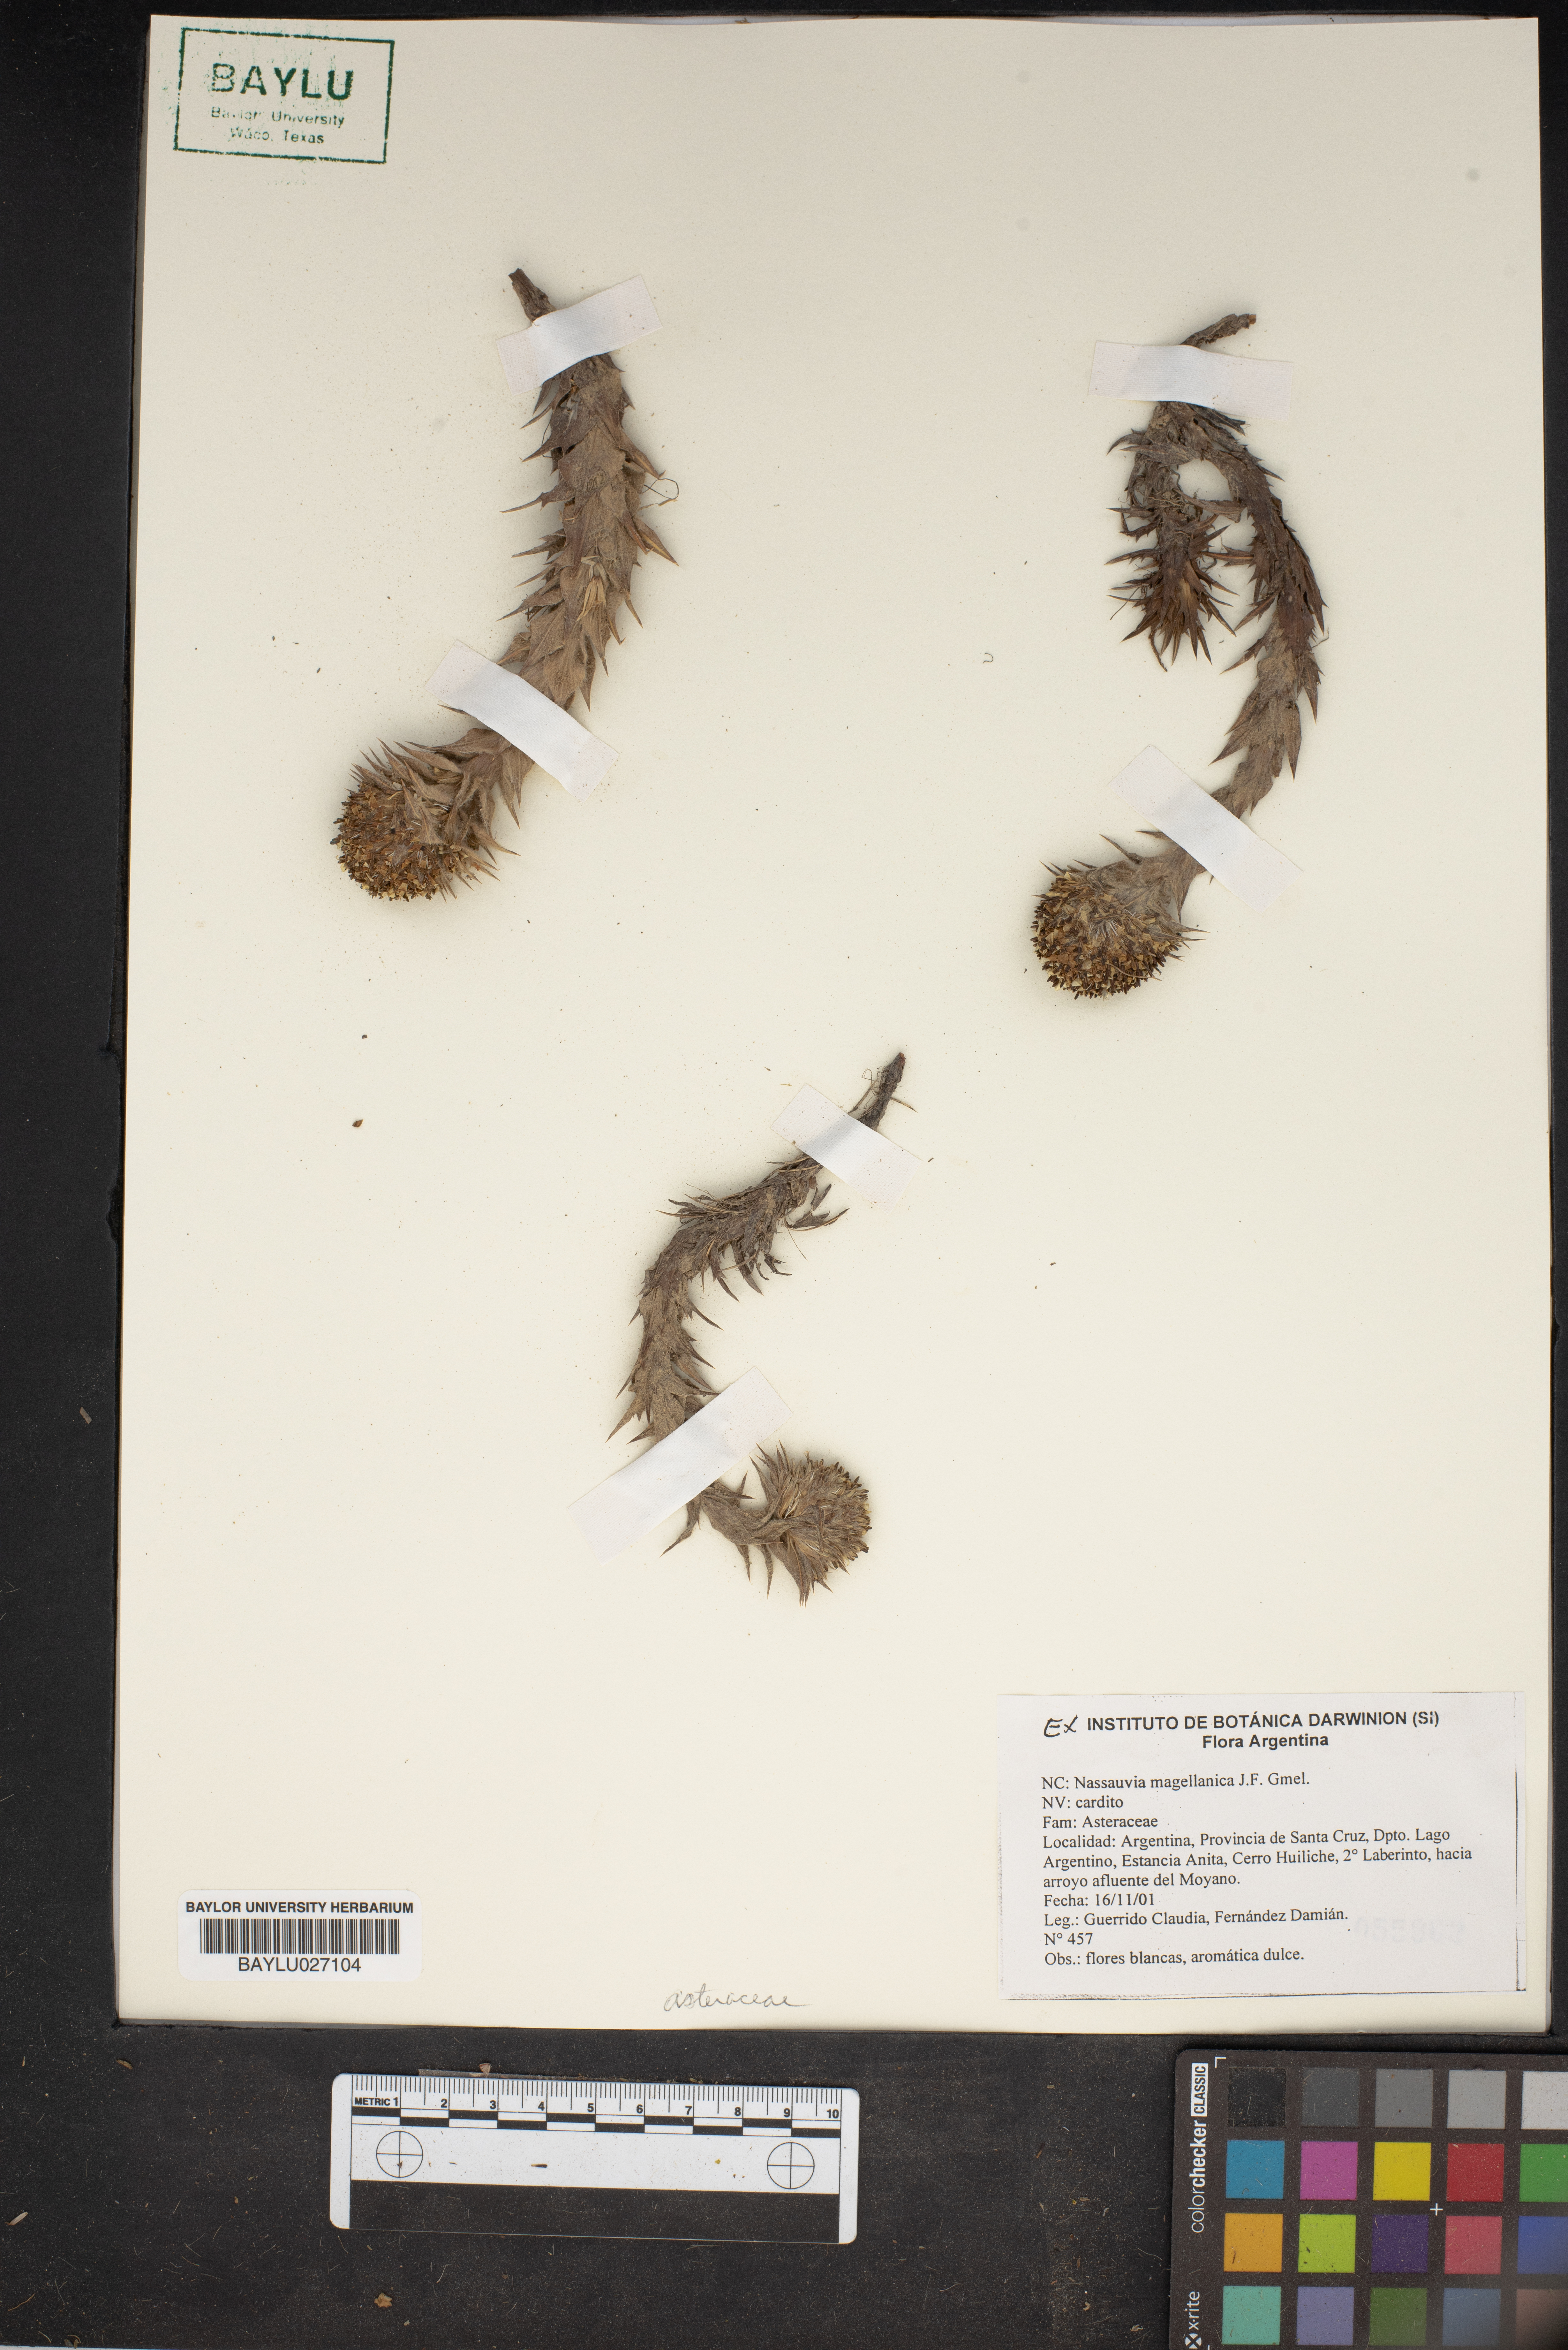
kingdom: Plantae
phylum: Tracheophyta
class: Magnoliopsida
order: Asterales
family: Asteraceae
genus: Nassauvia
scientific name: Nassauvia magellanica
